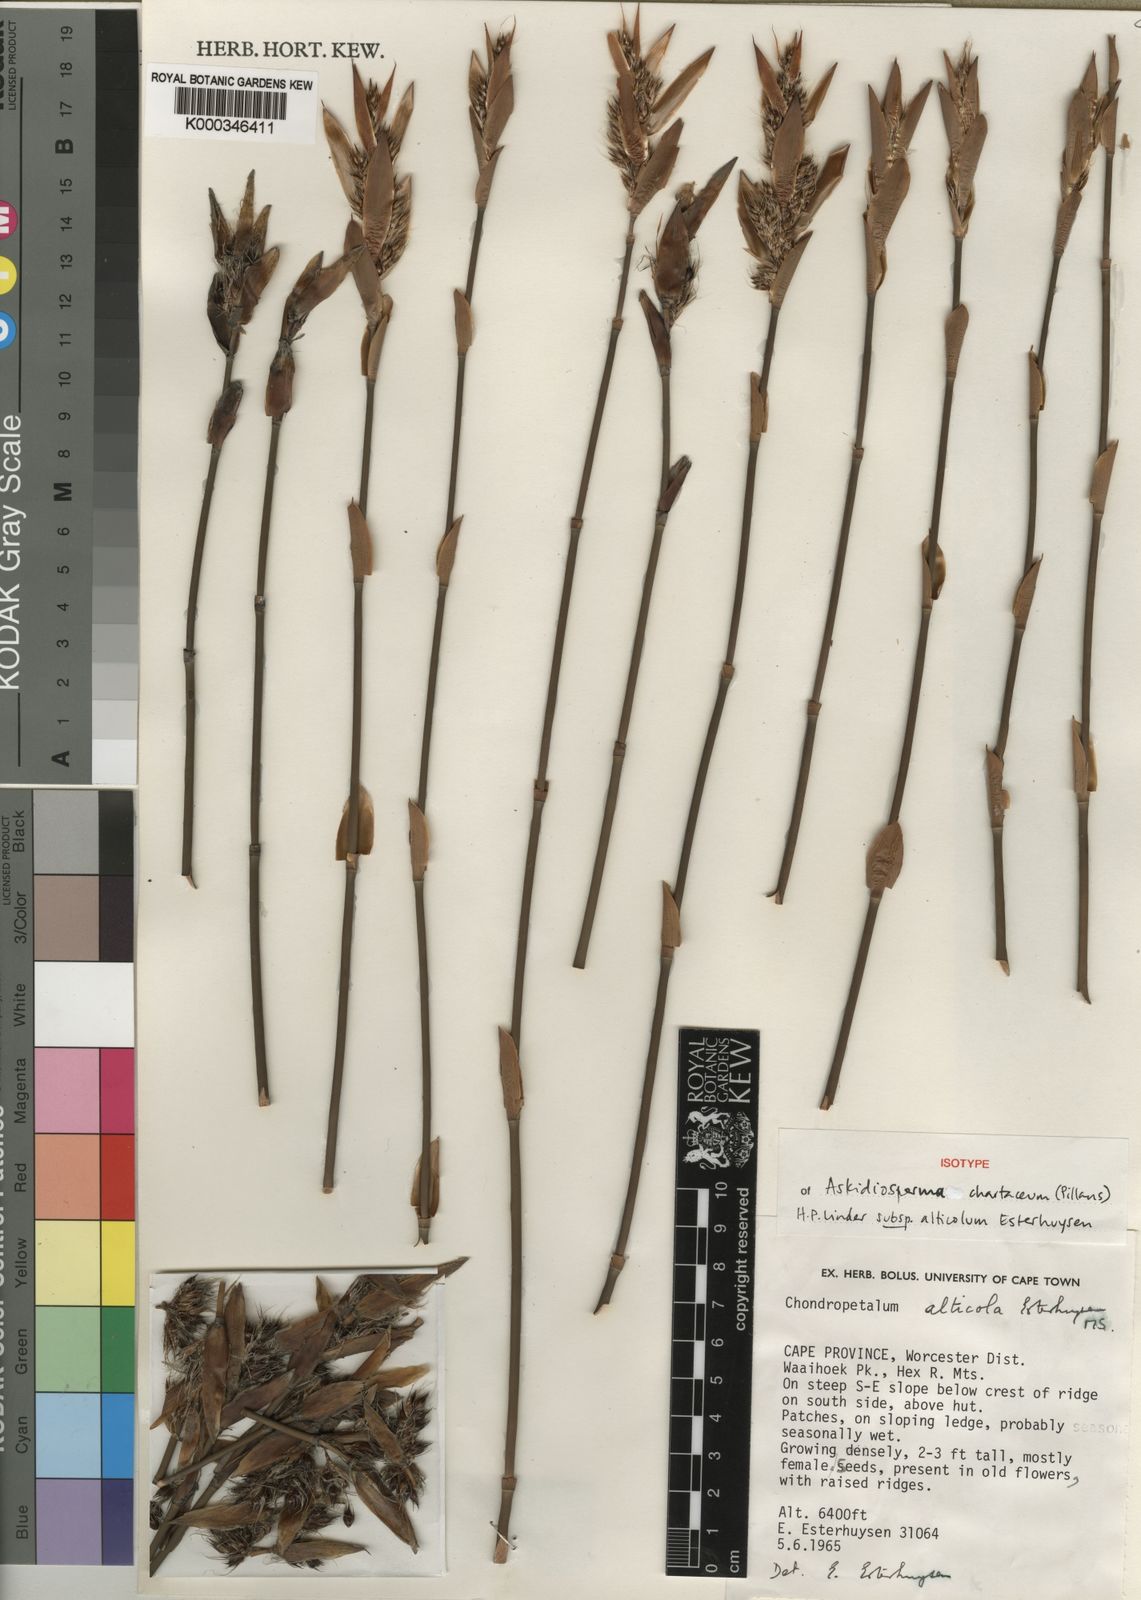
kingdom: Plantae
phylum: Tracheophyta
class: Liliopsida
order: Poales
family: Restionaceae
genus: Askidiosperma
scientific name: Askidiosperma alticola
